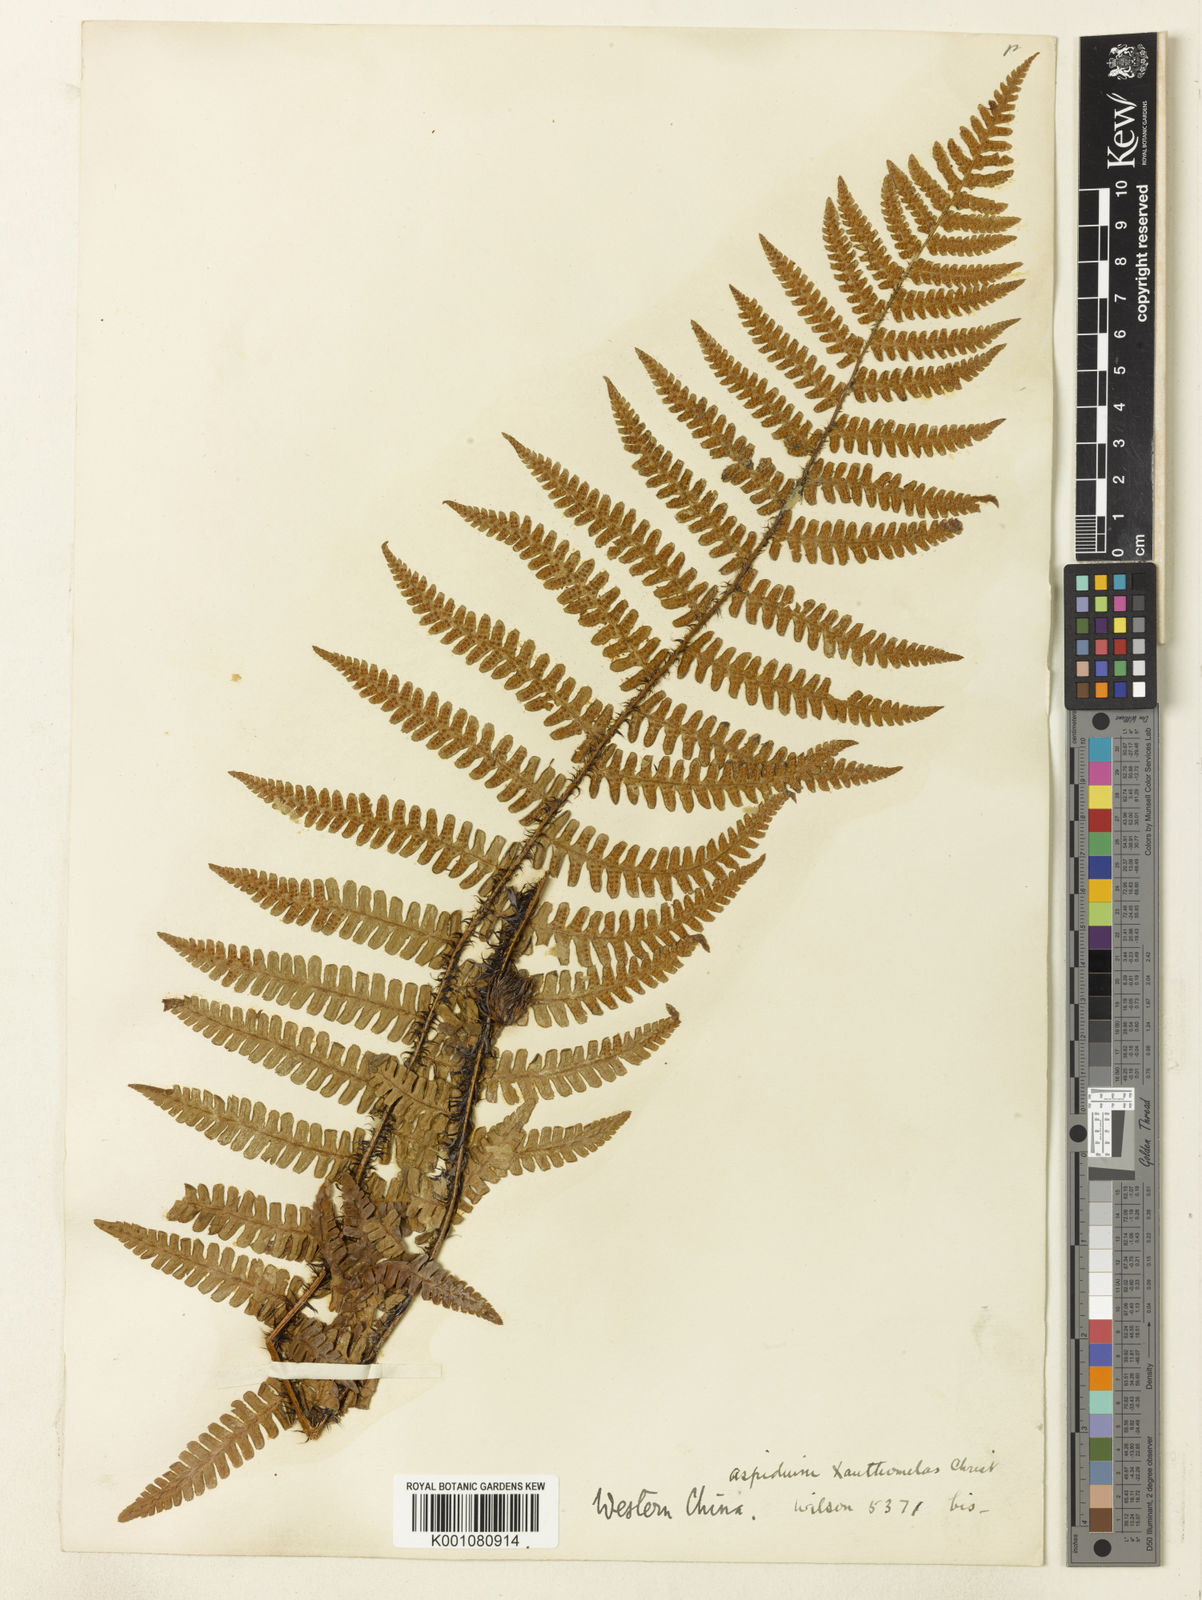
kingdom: Plantae
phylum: Tracheophyta
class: Polypodiopsida
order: Polypodiales
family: Dryopteridaceae
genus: Dryopteris
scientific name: Dryopteris rosthornii
